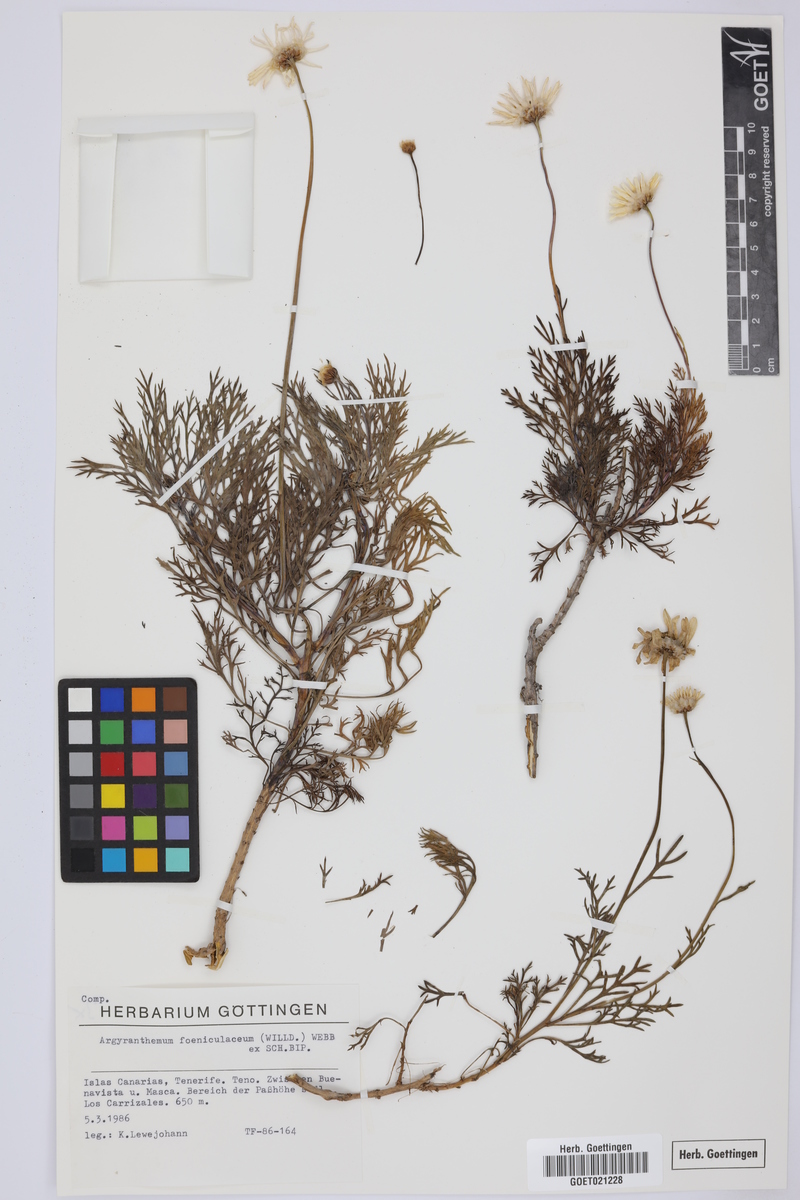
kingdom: Plantae
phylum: Tracheophyta
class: Magnoliopsida
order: Asterales
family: Asteraceae
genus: Argyranthemum
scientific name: Argyranthemum foeniculaceum
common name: Canary island marguerite
